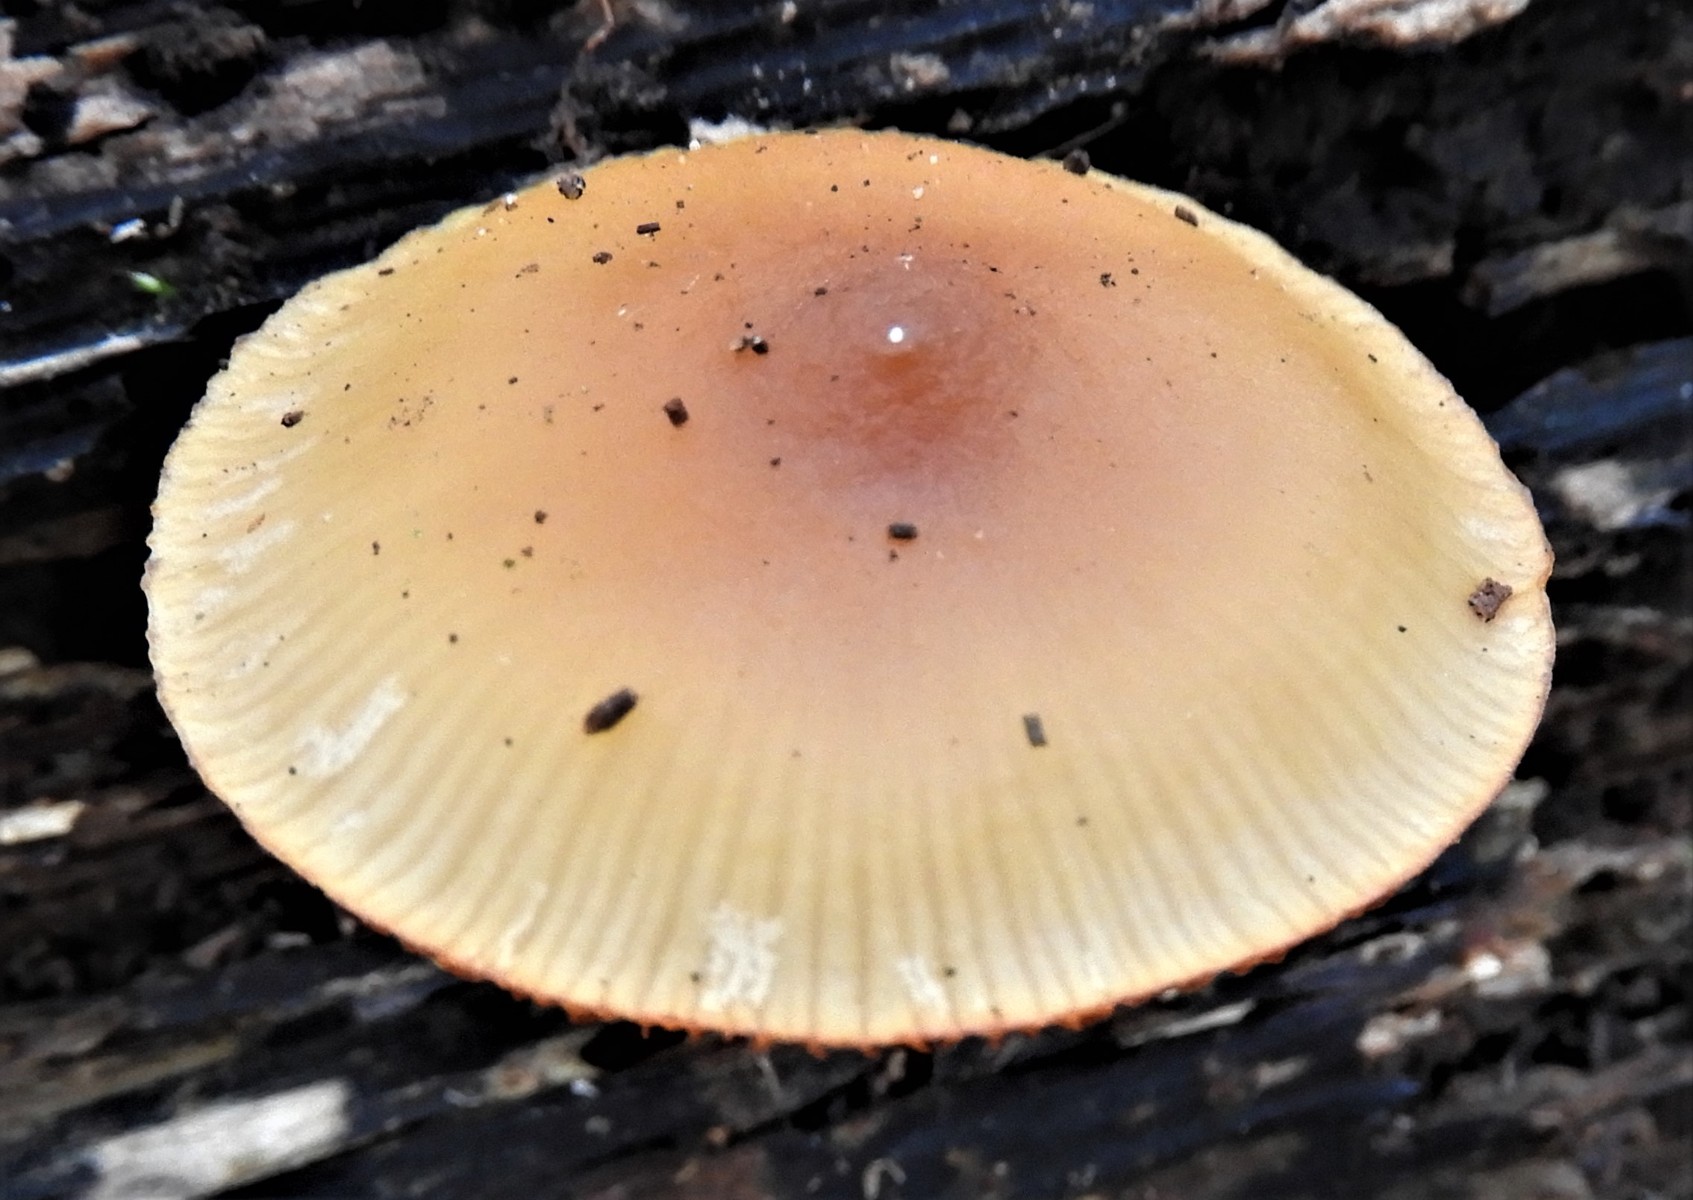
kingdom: Fungi
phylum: Basidiomycota
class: Agaricomycetes
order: Agaricales
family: Hymenogastraceae
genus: Galerina
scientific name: Galerina marginata
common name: randbæltet hjelmhat
